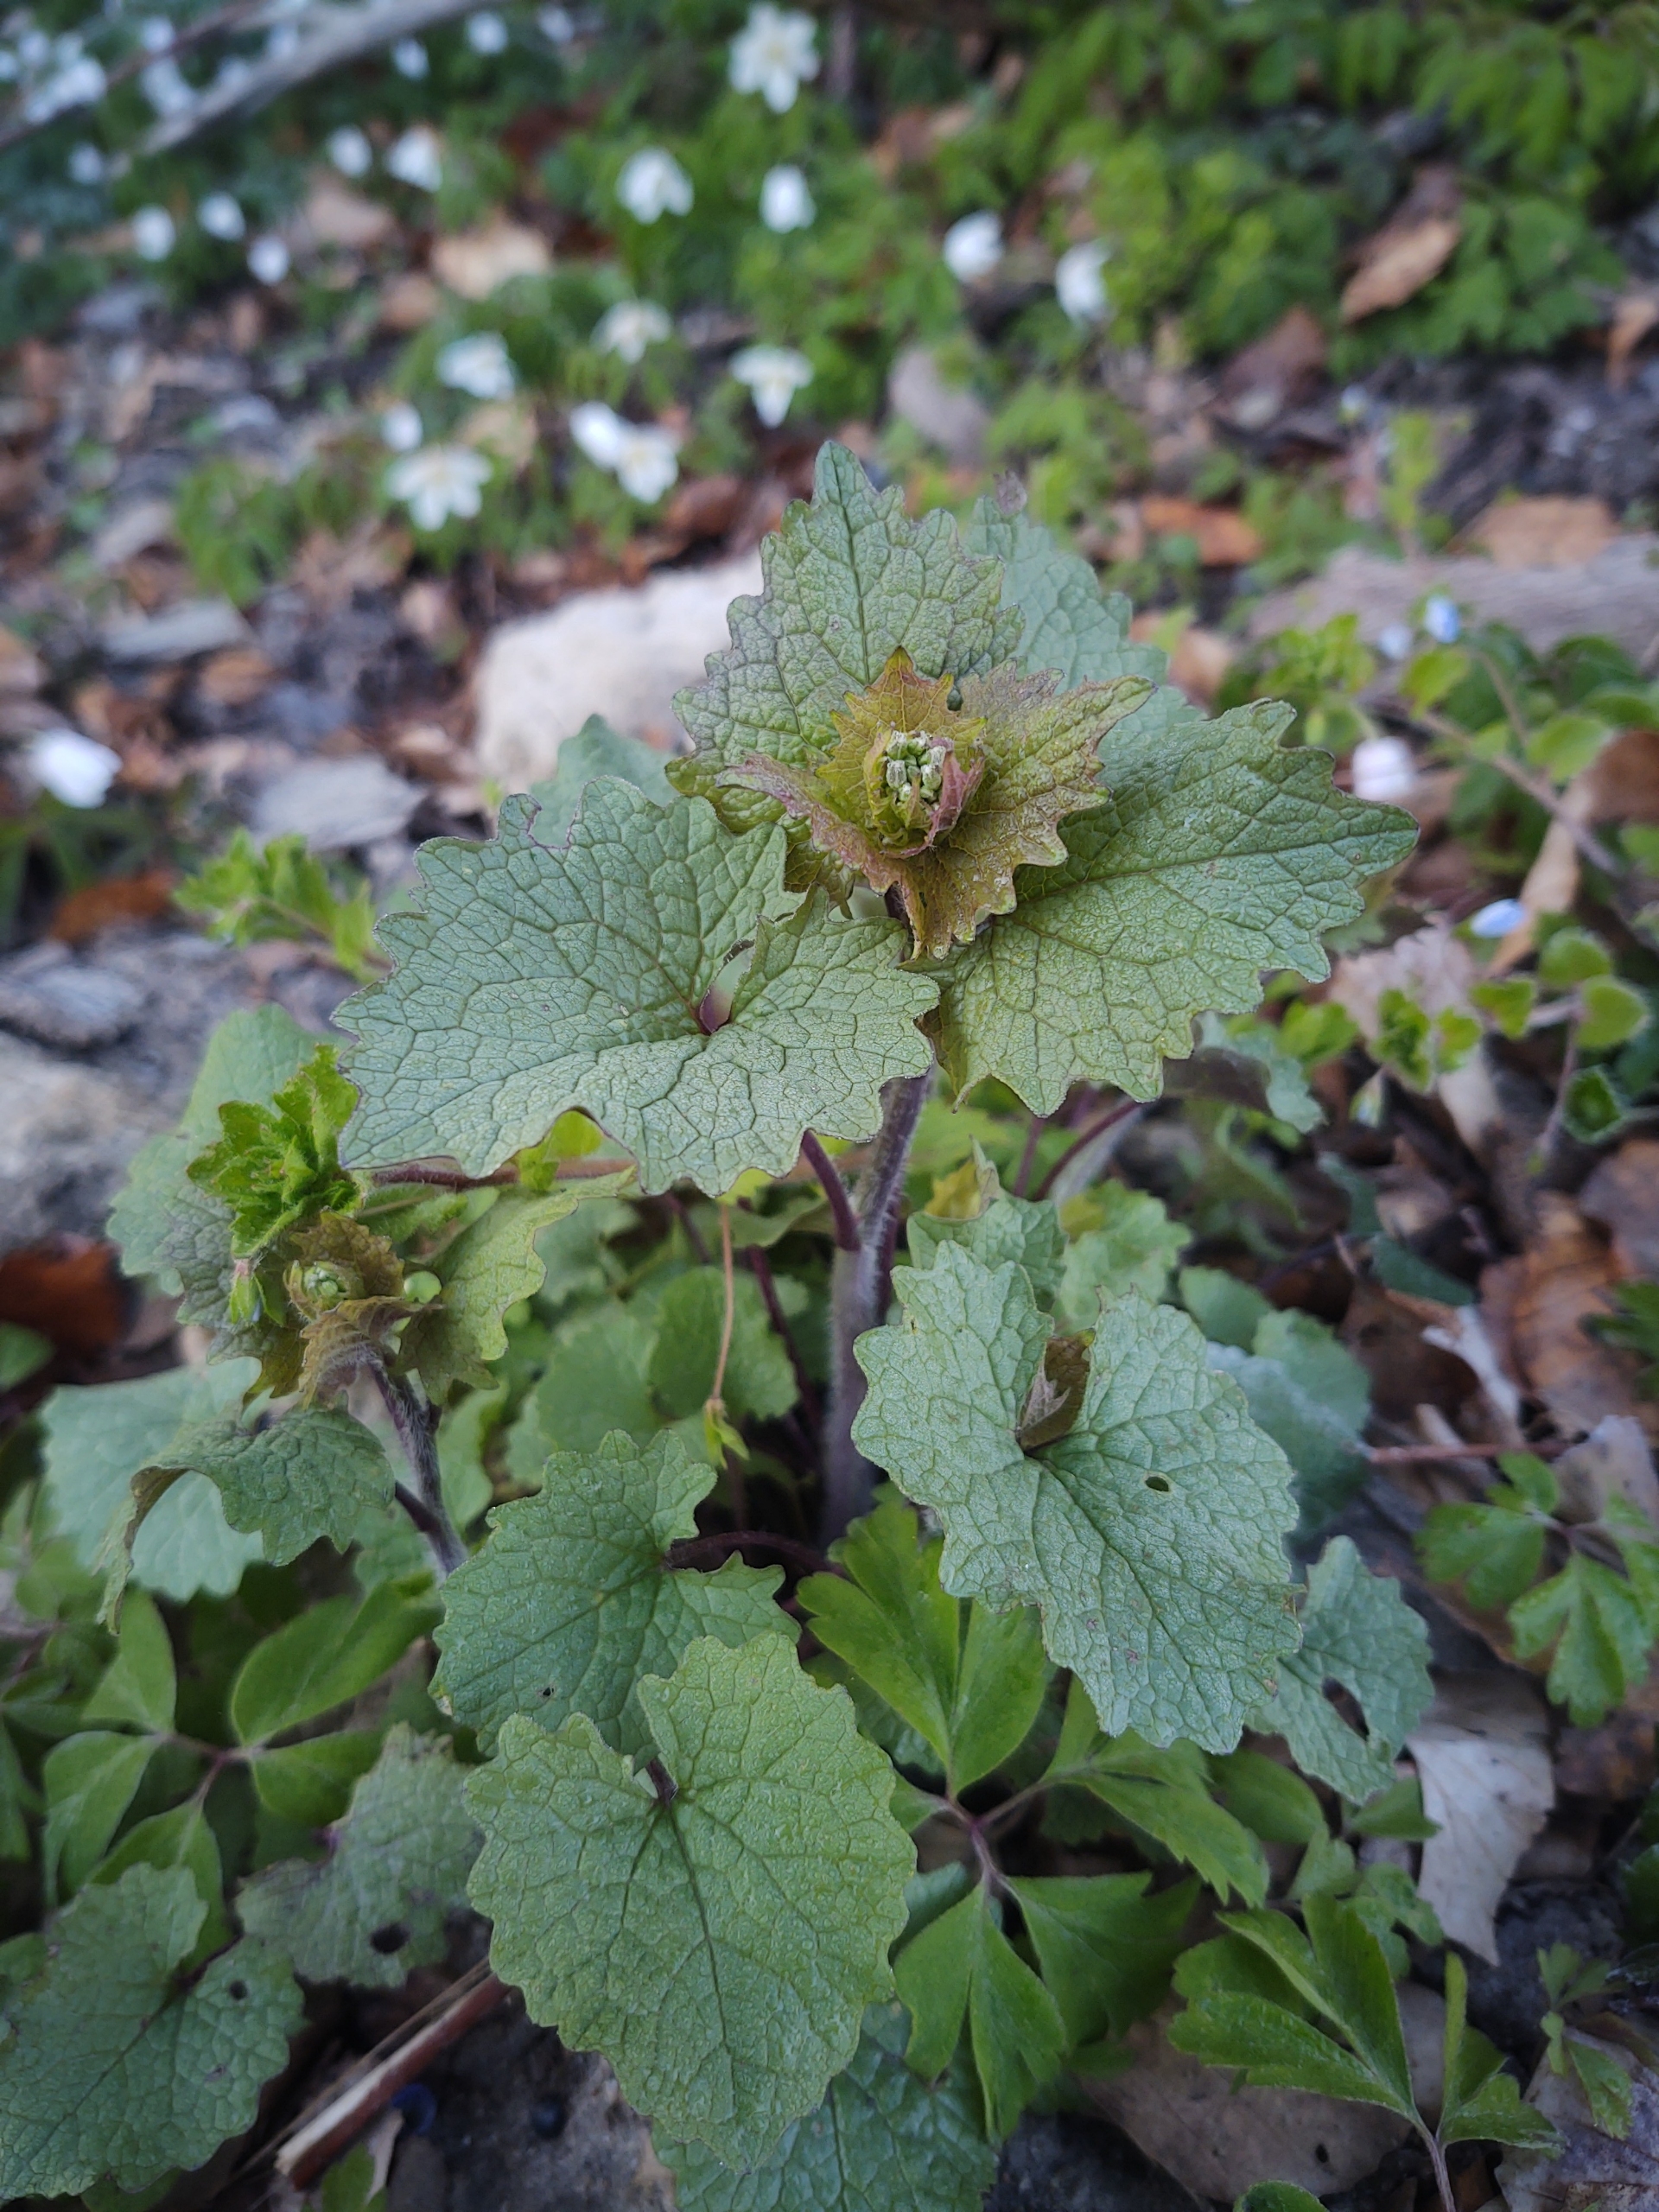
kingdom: Plantae
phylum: Tracheophyta
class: Magnoliopsida
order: Brassicales
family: Brassicaceae
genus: Alliaria
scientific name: Alliaria petiolata
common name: Løgkarse
